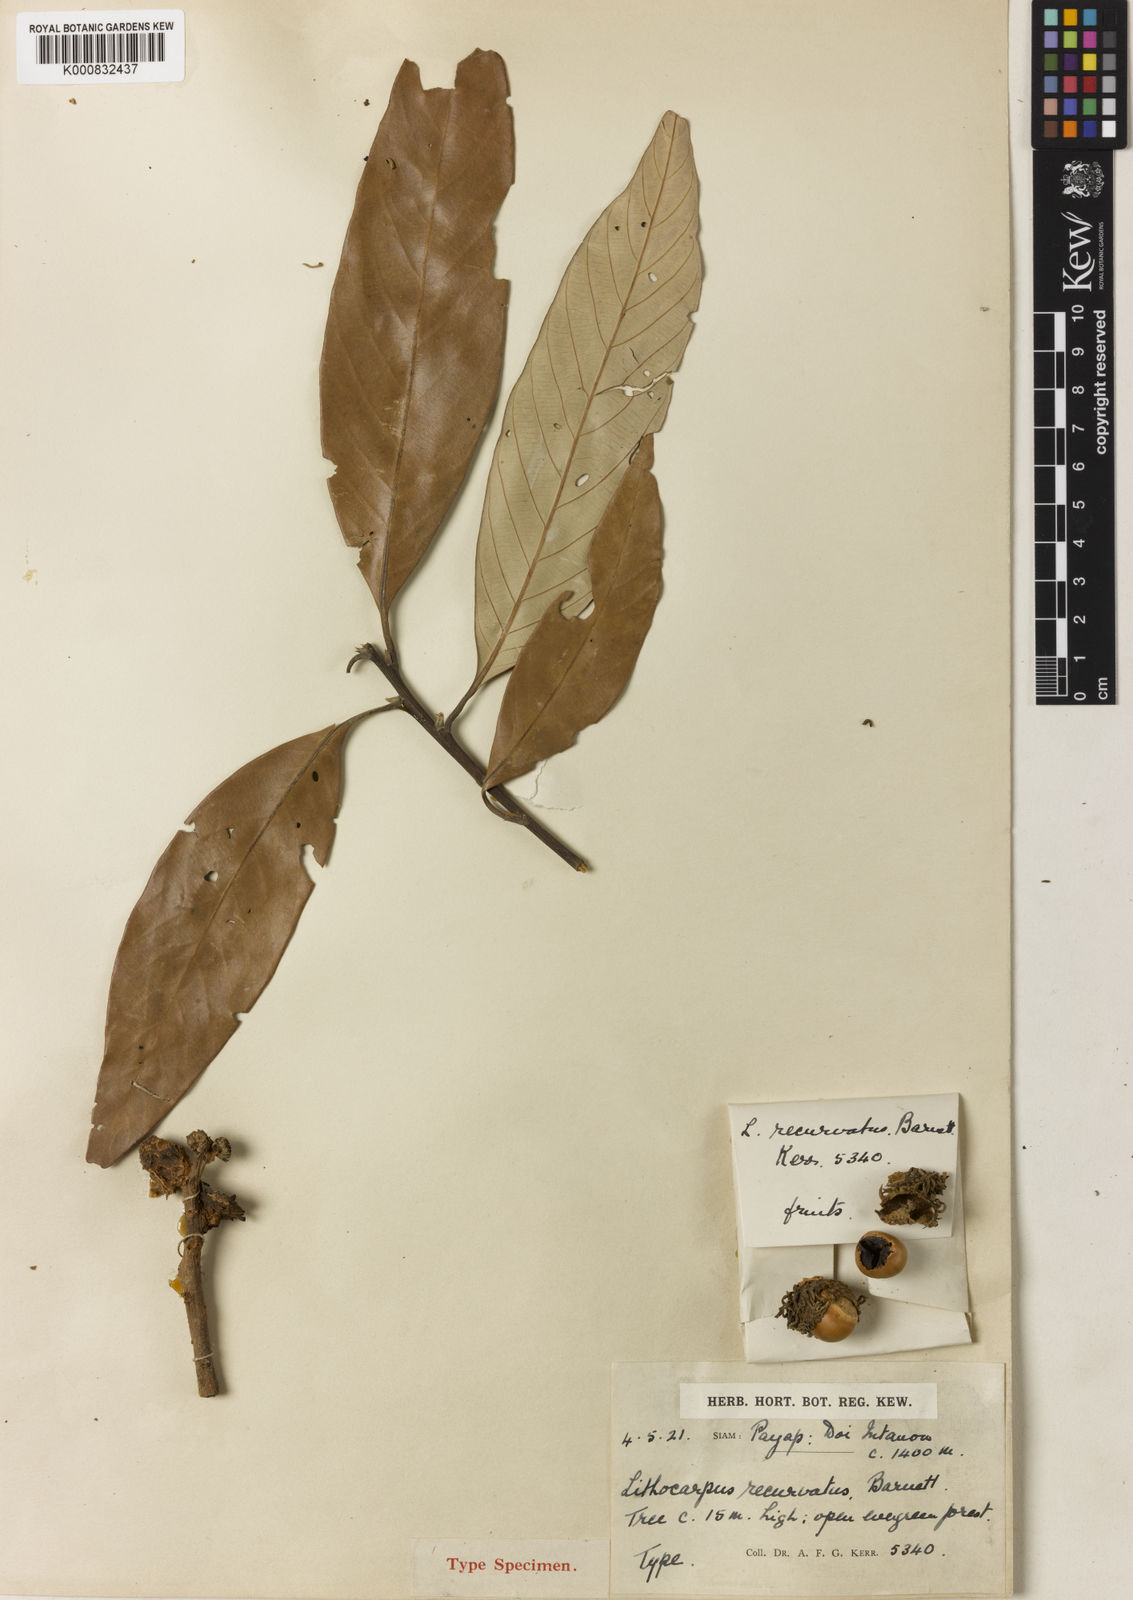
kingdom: Plantae
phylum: Tracheophyta
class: Magnoliopsida
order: Fagales
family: Fagaceae
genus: Lithocarpus
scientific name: Lithocarpus recurvatus
